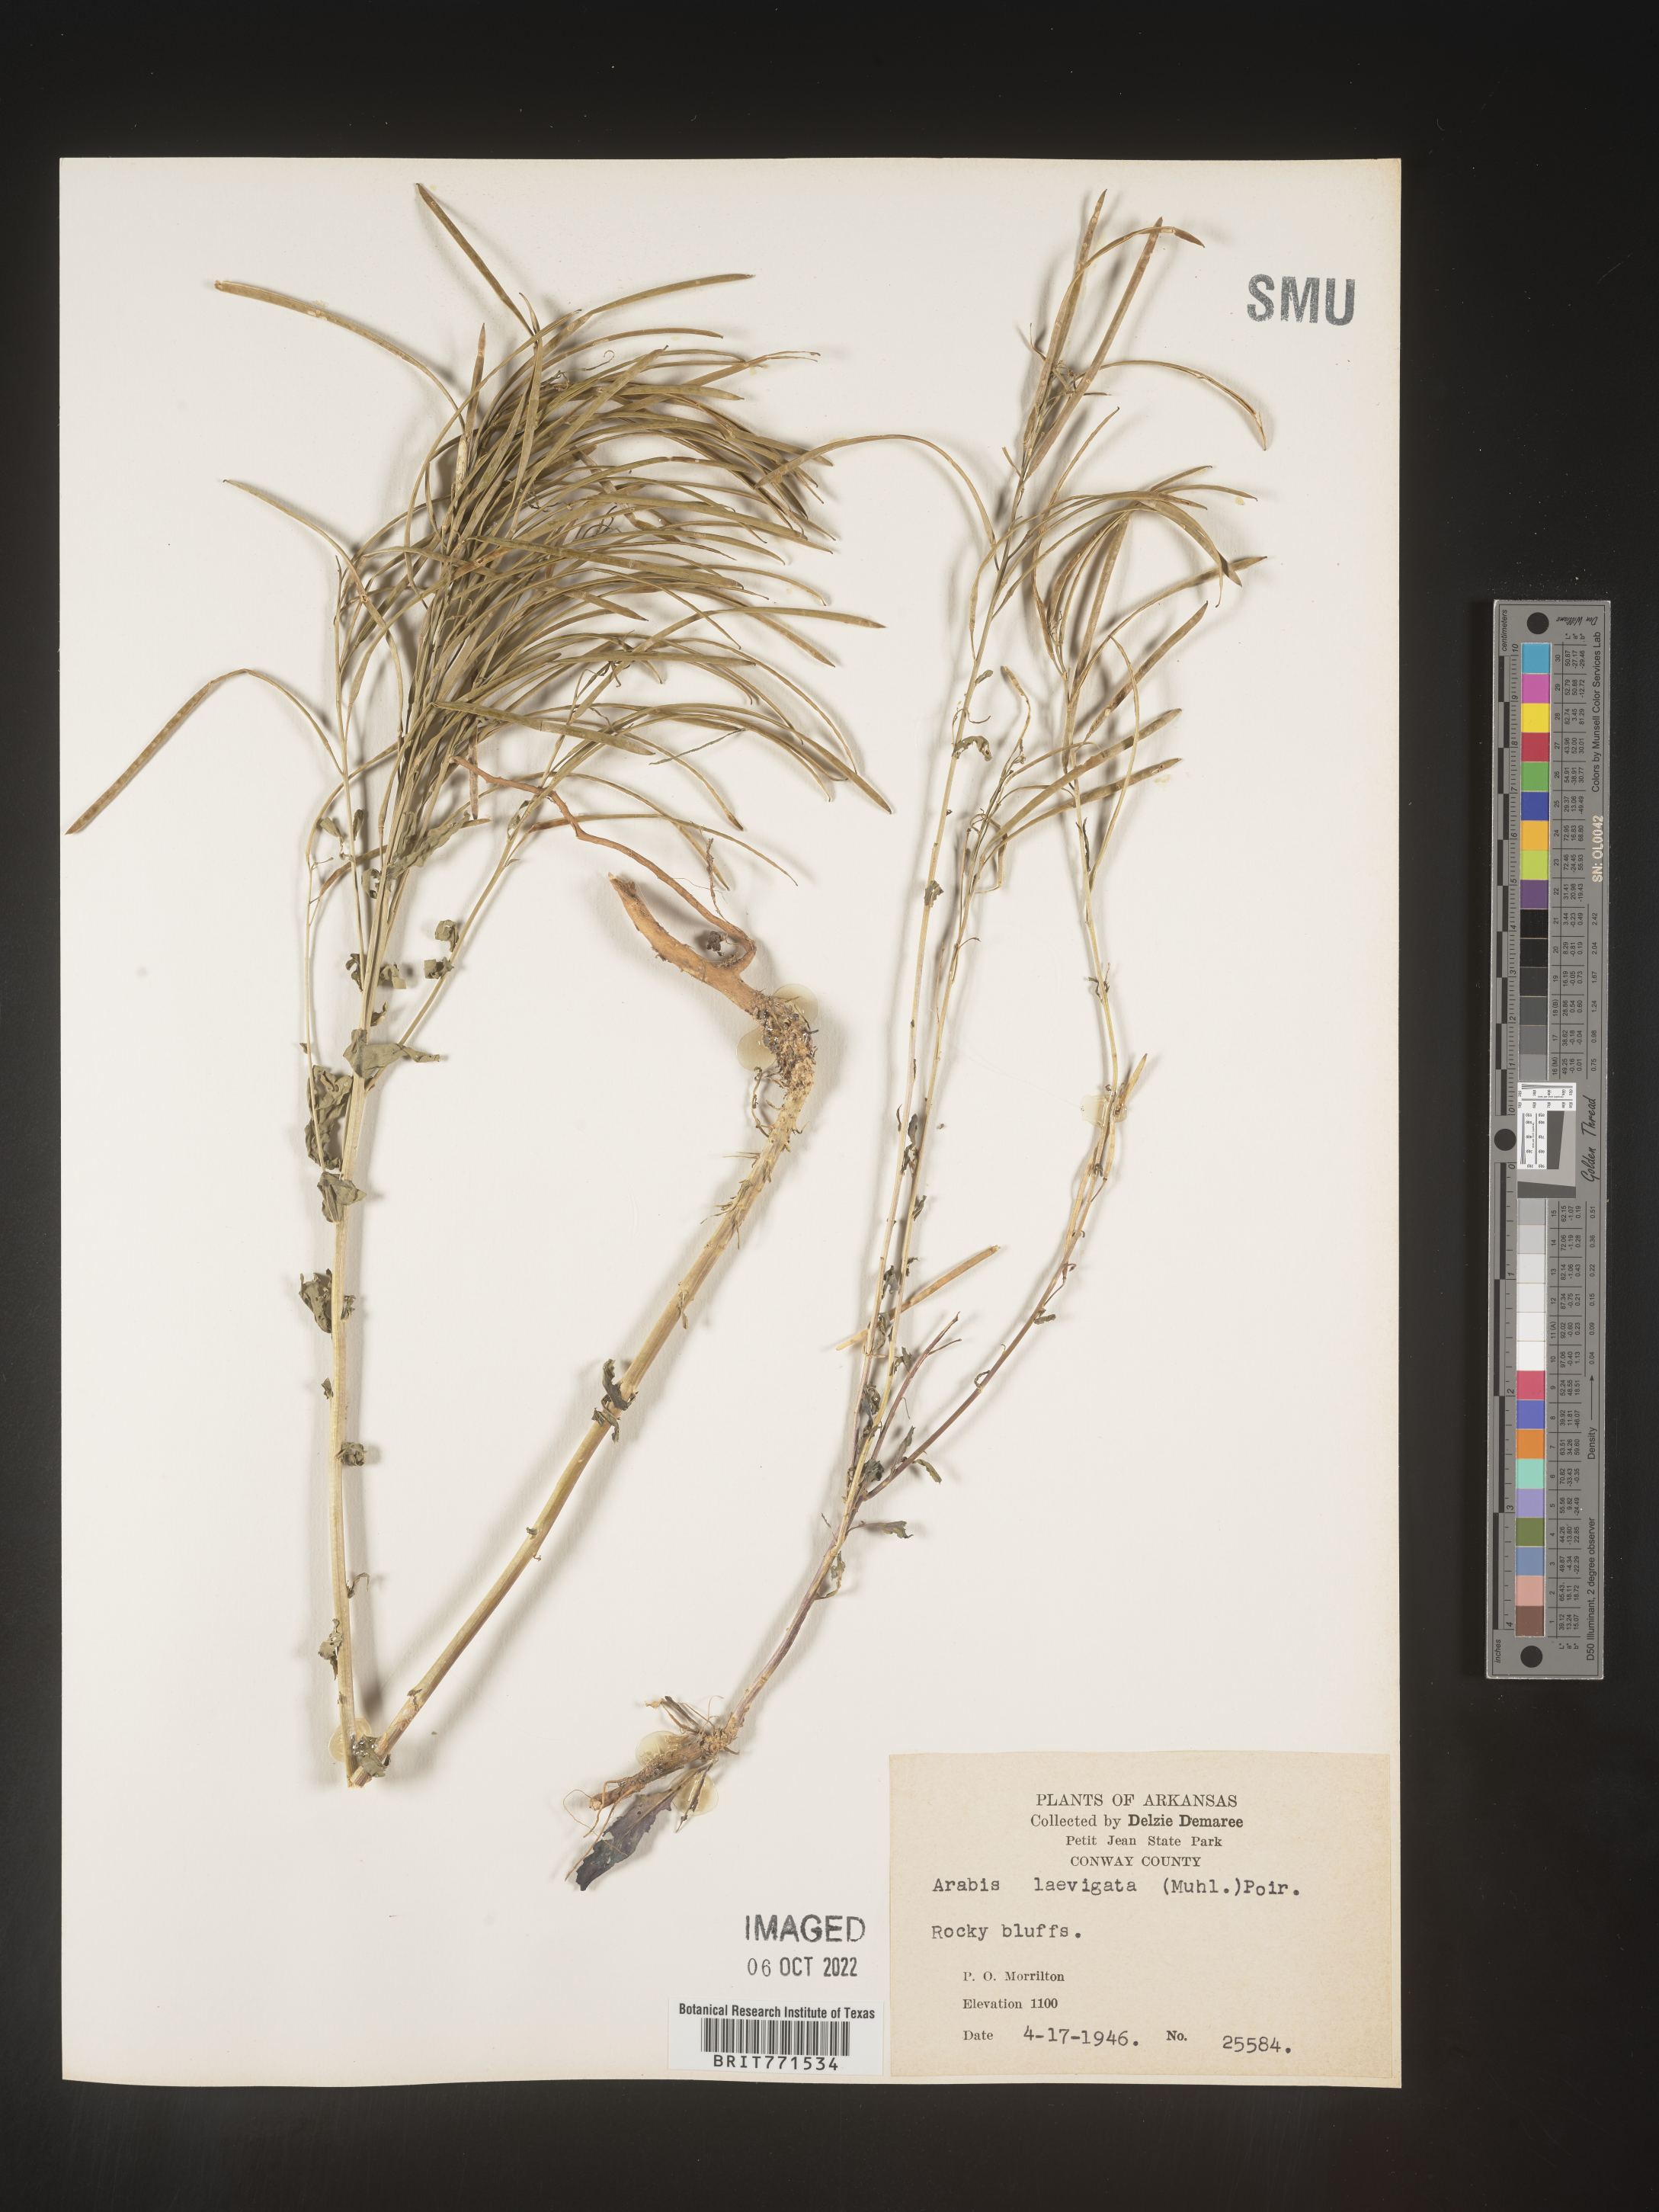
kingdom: Plantae
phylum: Tracheophyta
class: Magnoliopsida
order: Brassicales
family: Brassicaceae
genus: Arabis
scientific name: Arabis laevigata
